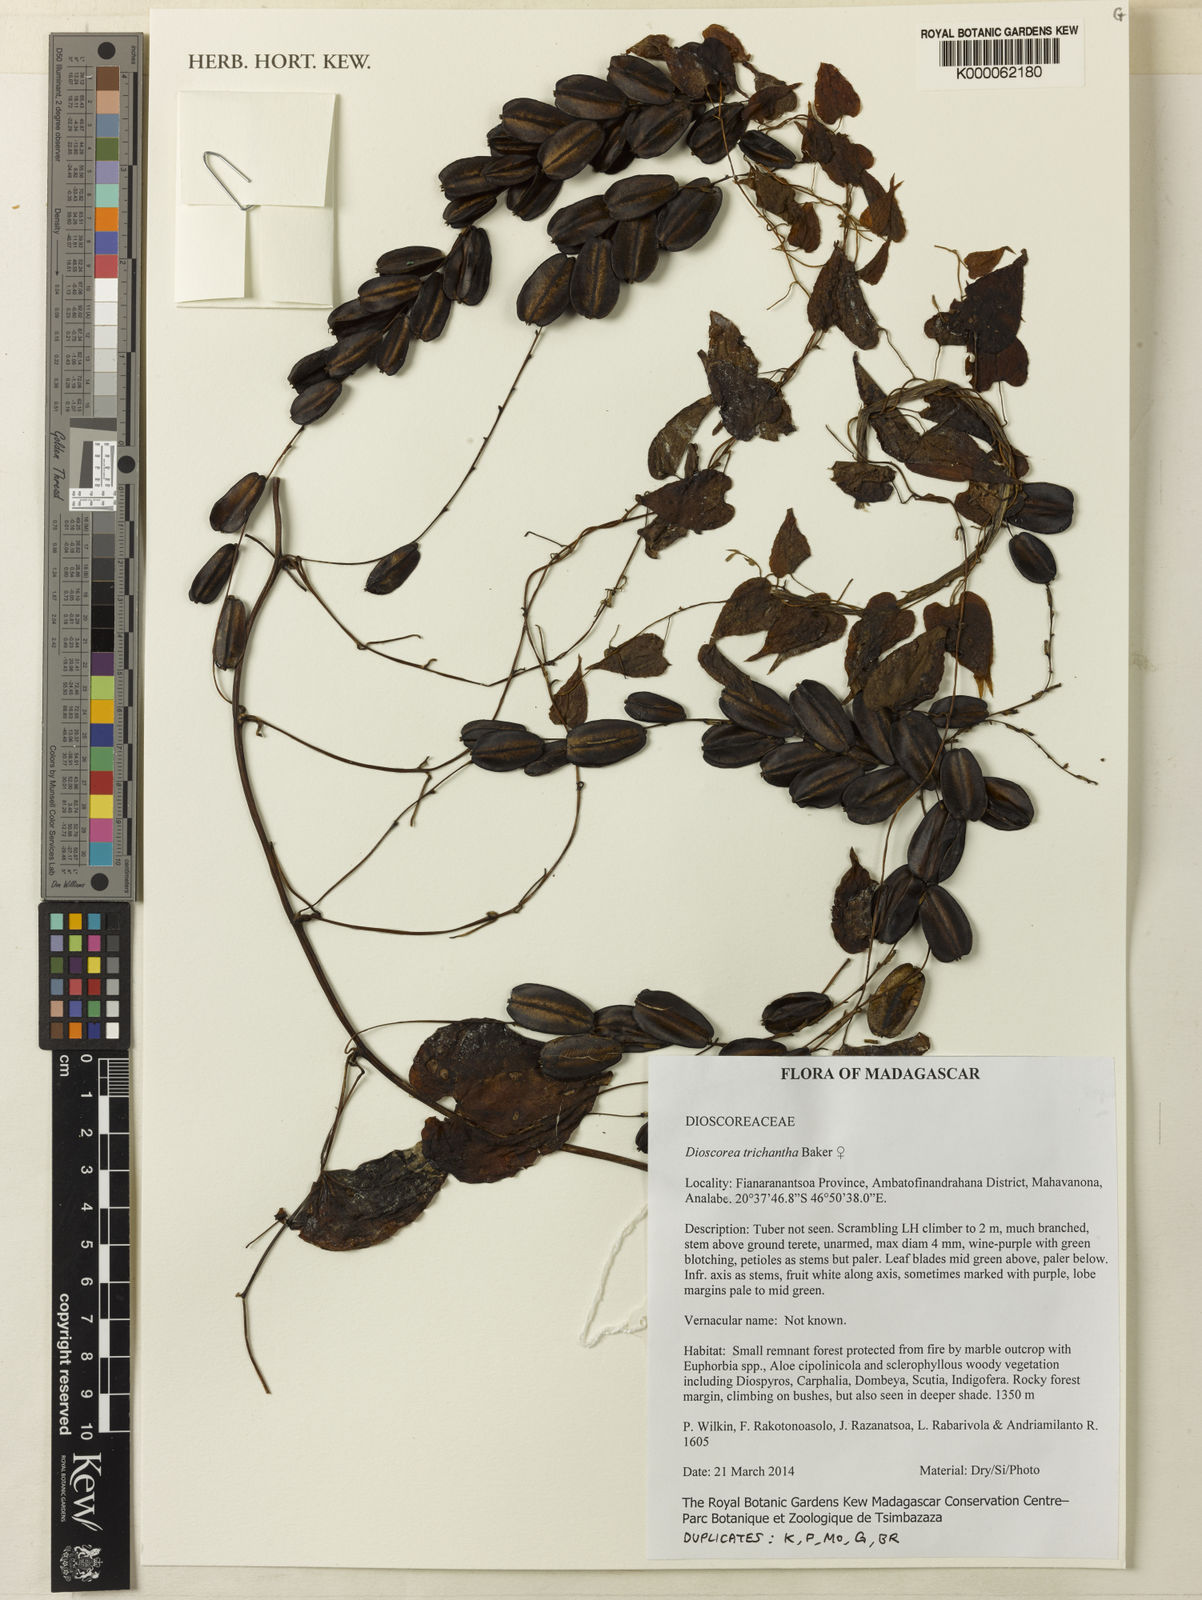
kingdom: Plantae
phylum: Tracheophyta
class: Liliopsida
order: Dioscoreales
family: Dioscoreaceae
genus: Dioscorea
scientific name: Dioscorea trichantha
